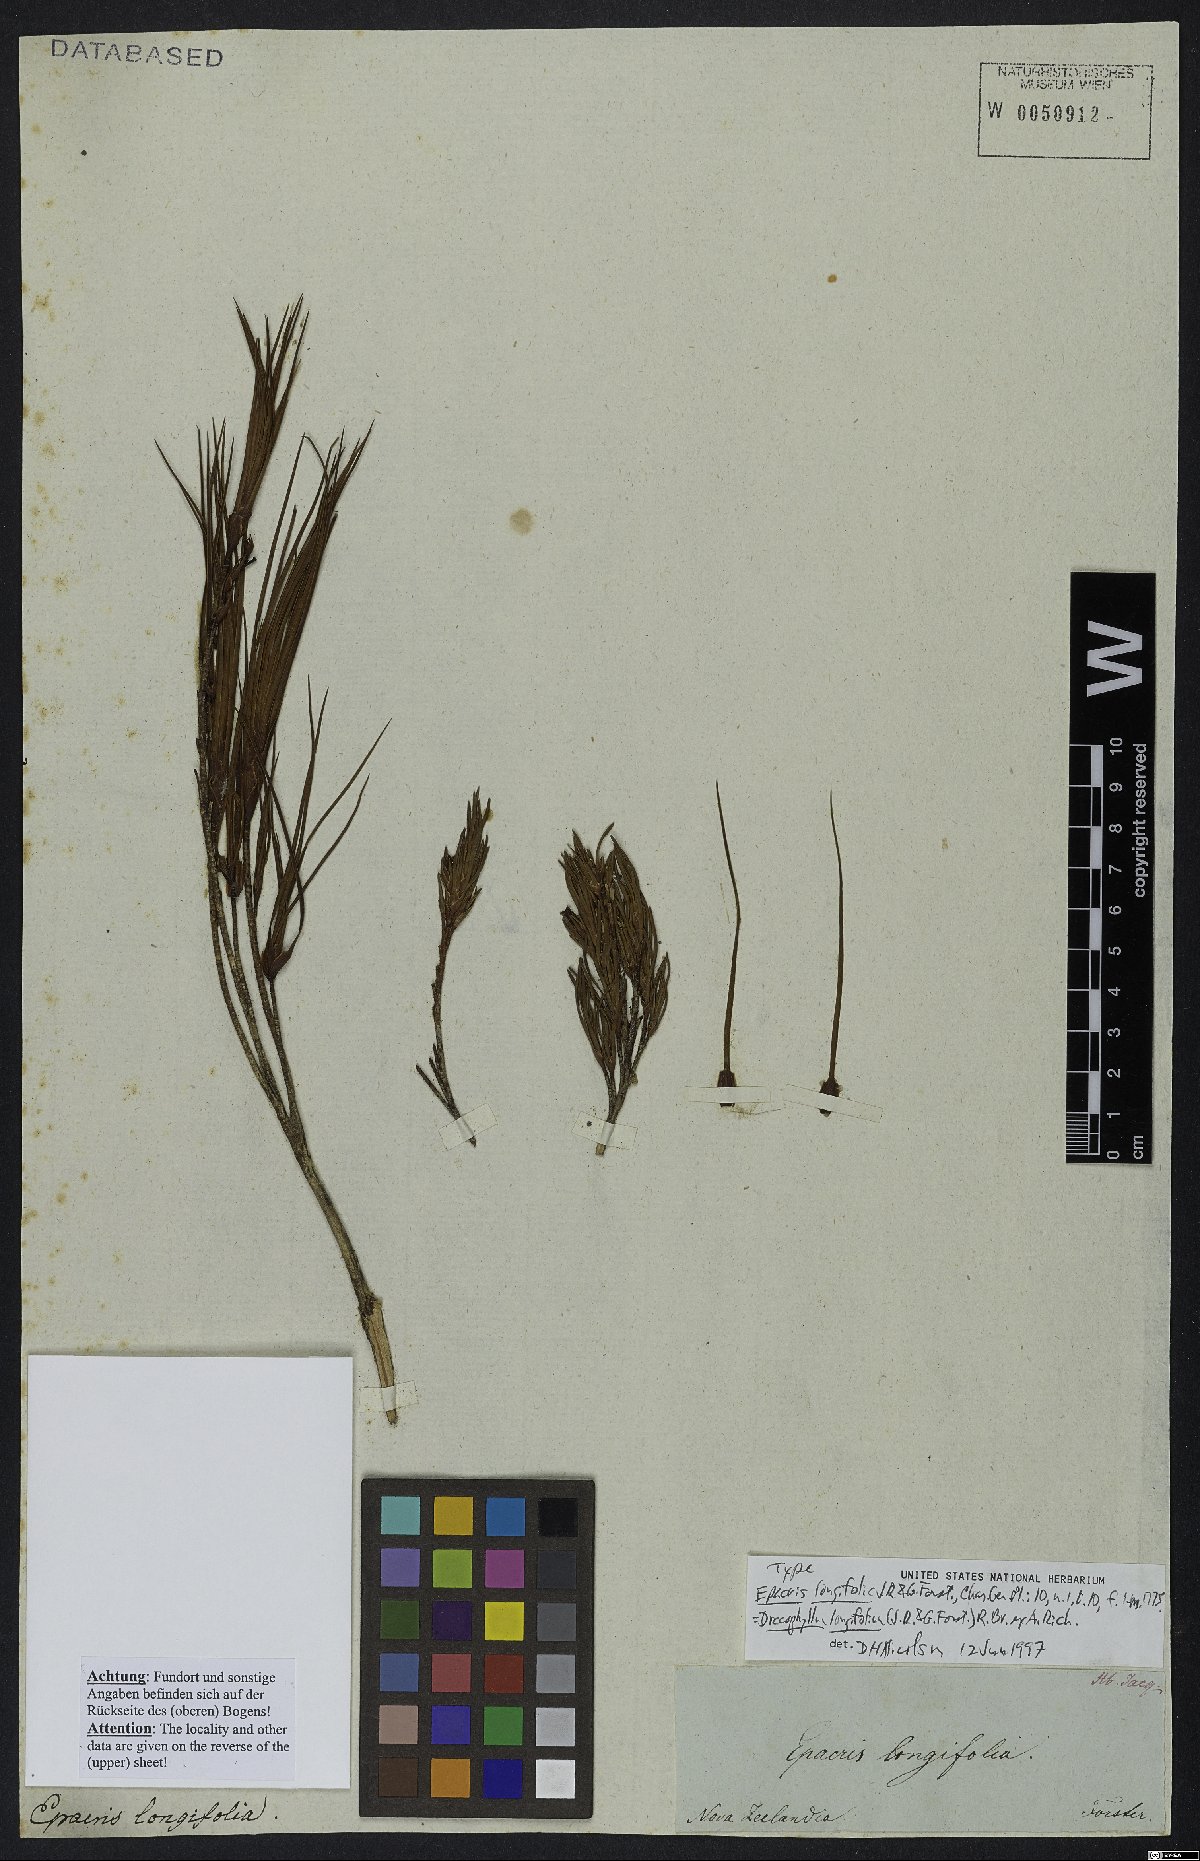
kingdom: Plantae
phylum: Tracheophyta
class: Magnoliopsida
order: Ericales
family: Ericaceae
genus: Dracophyllum
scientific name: Dracophyllum longifolium
